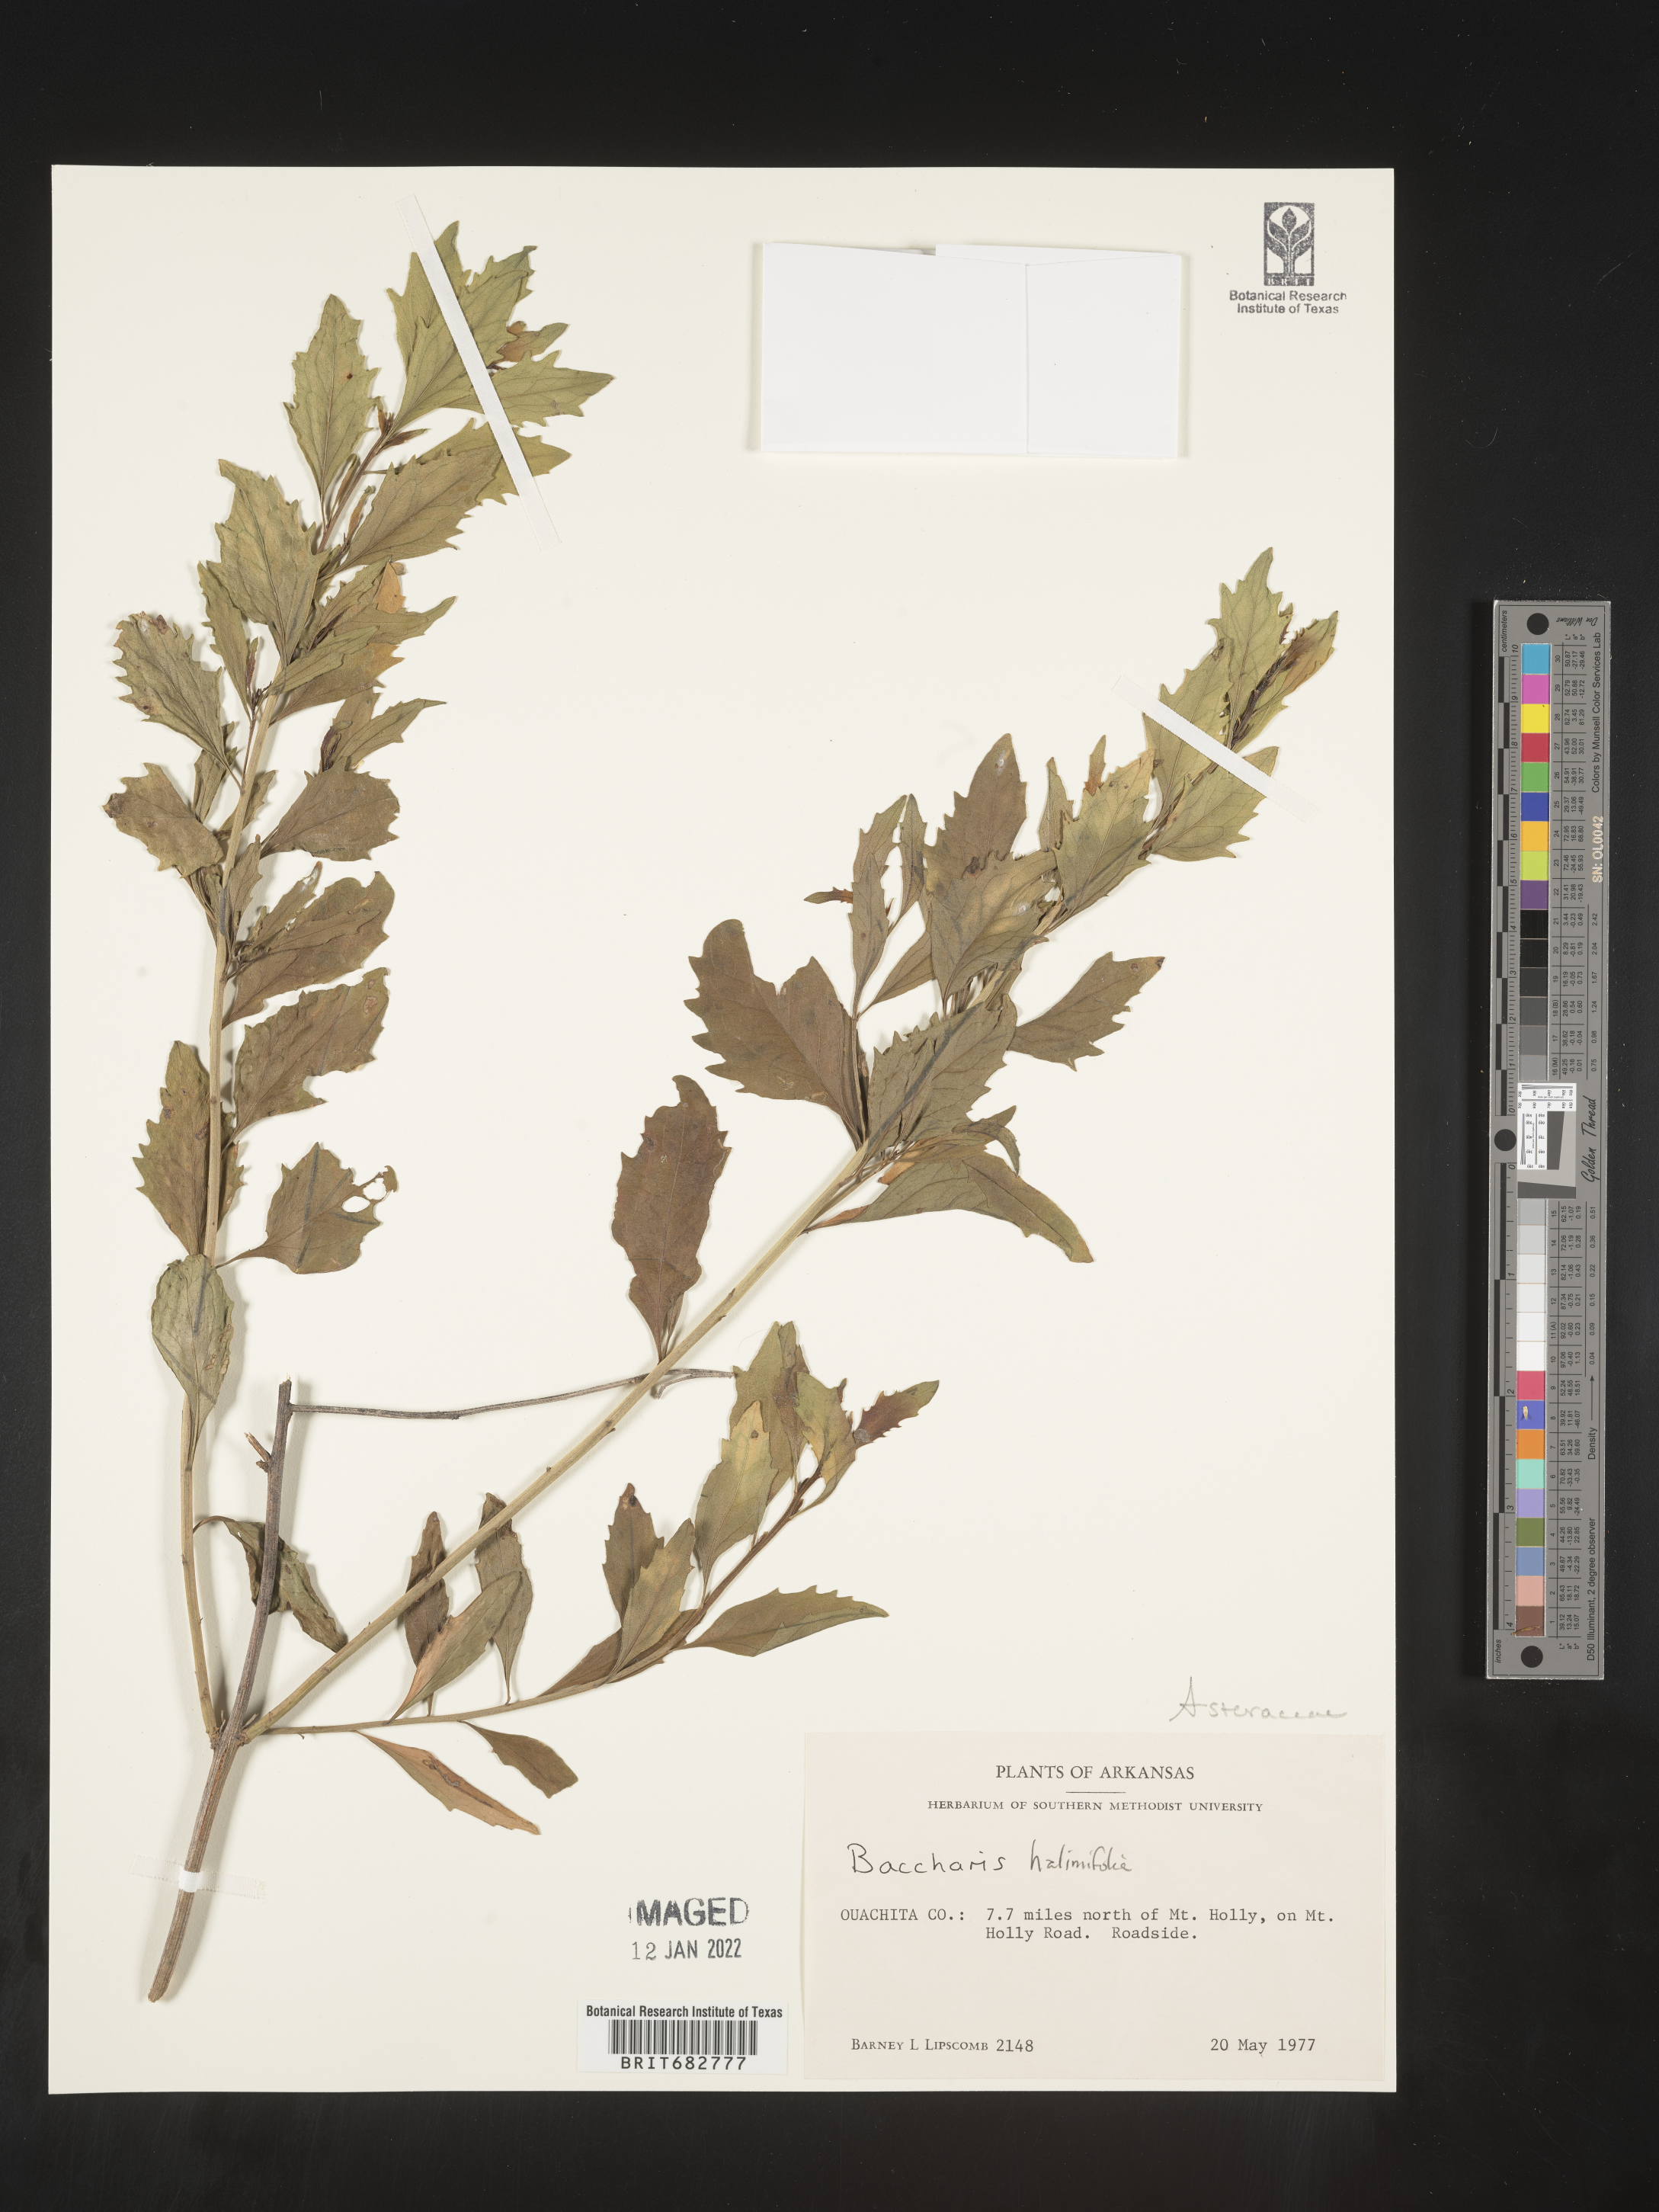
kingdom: Plantae
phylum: Tracheophyta
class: Magnoliopsida
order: Asterales
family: Asteraceae
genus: Nidorella
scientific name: Nidorella ivifolia
